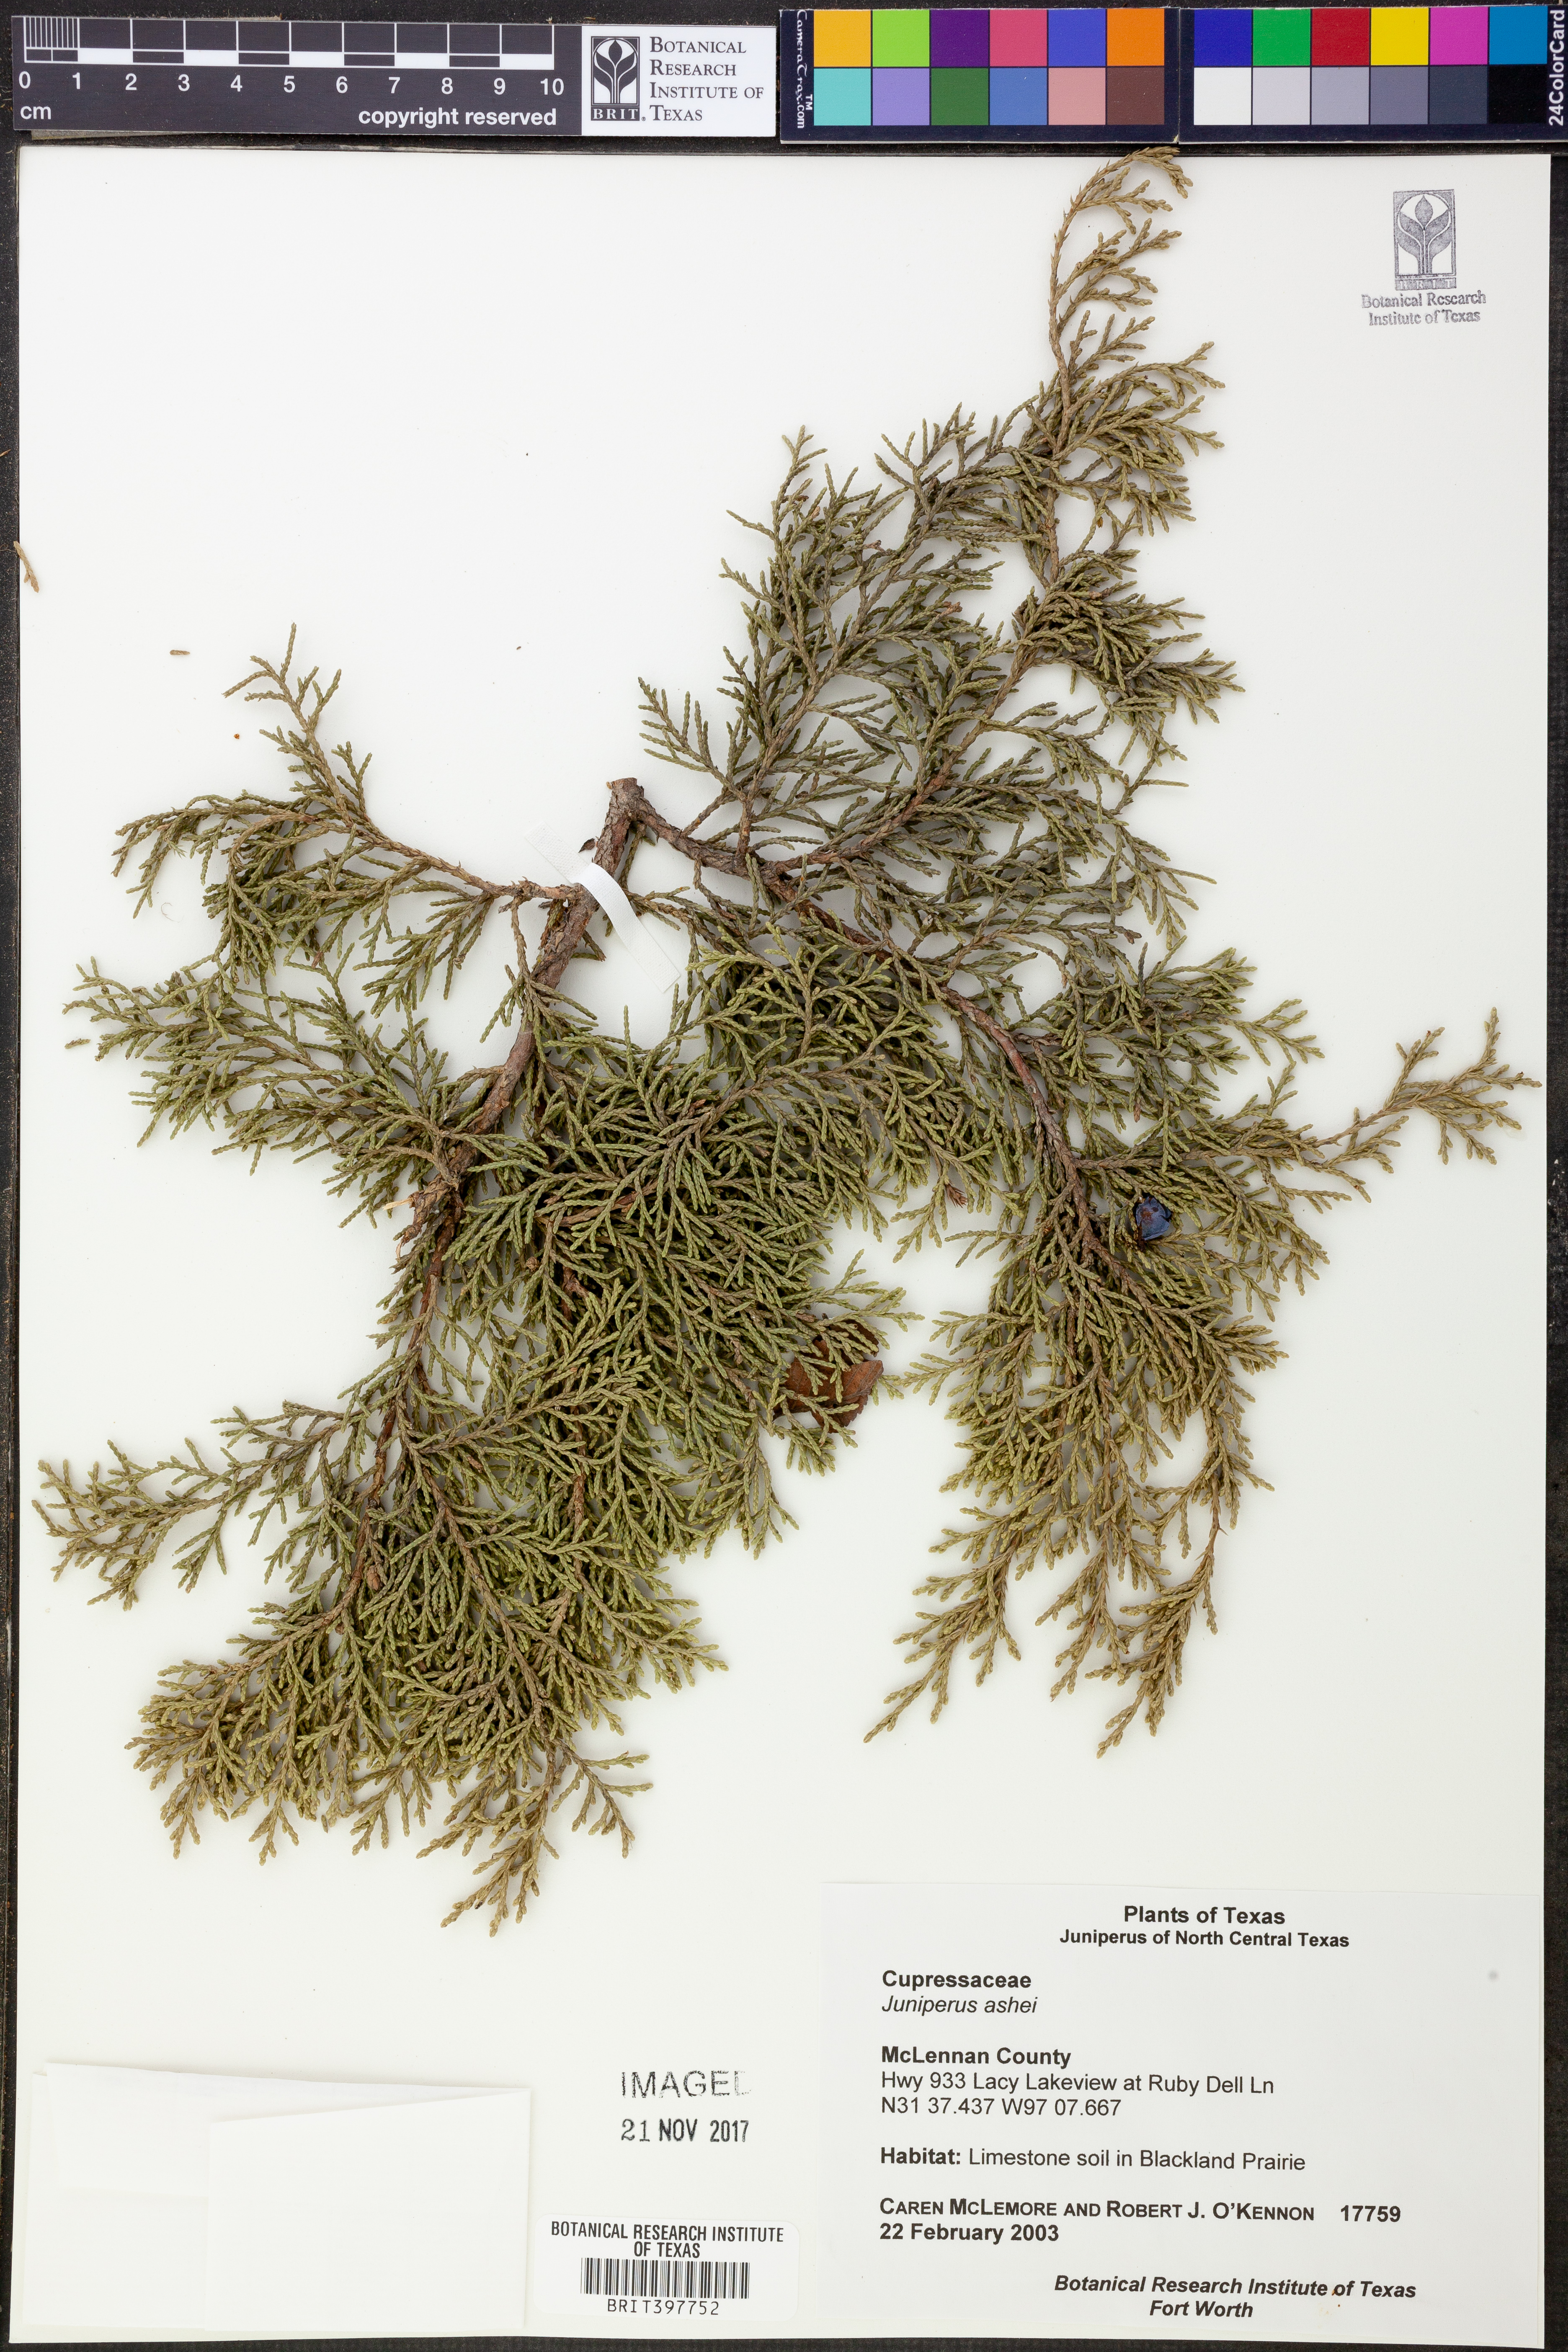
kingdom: Plantae
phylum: Tracheophyta
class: Pinopsida
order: Pinales
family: Cupressaceae
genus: Juniperus
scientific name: Juniperus ashei
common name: Mexican juniper
